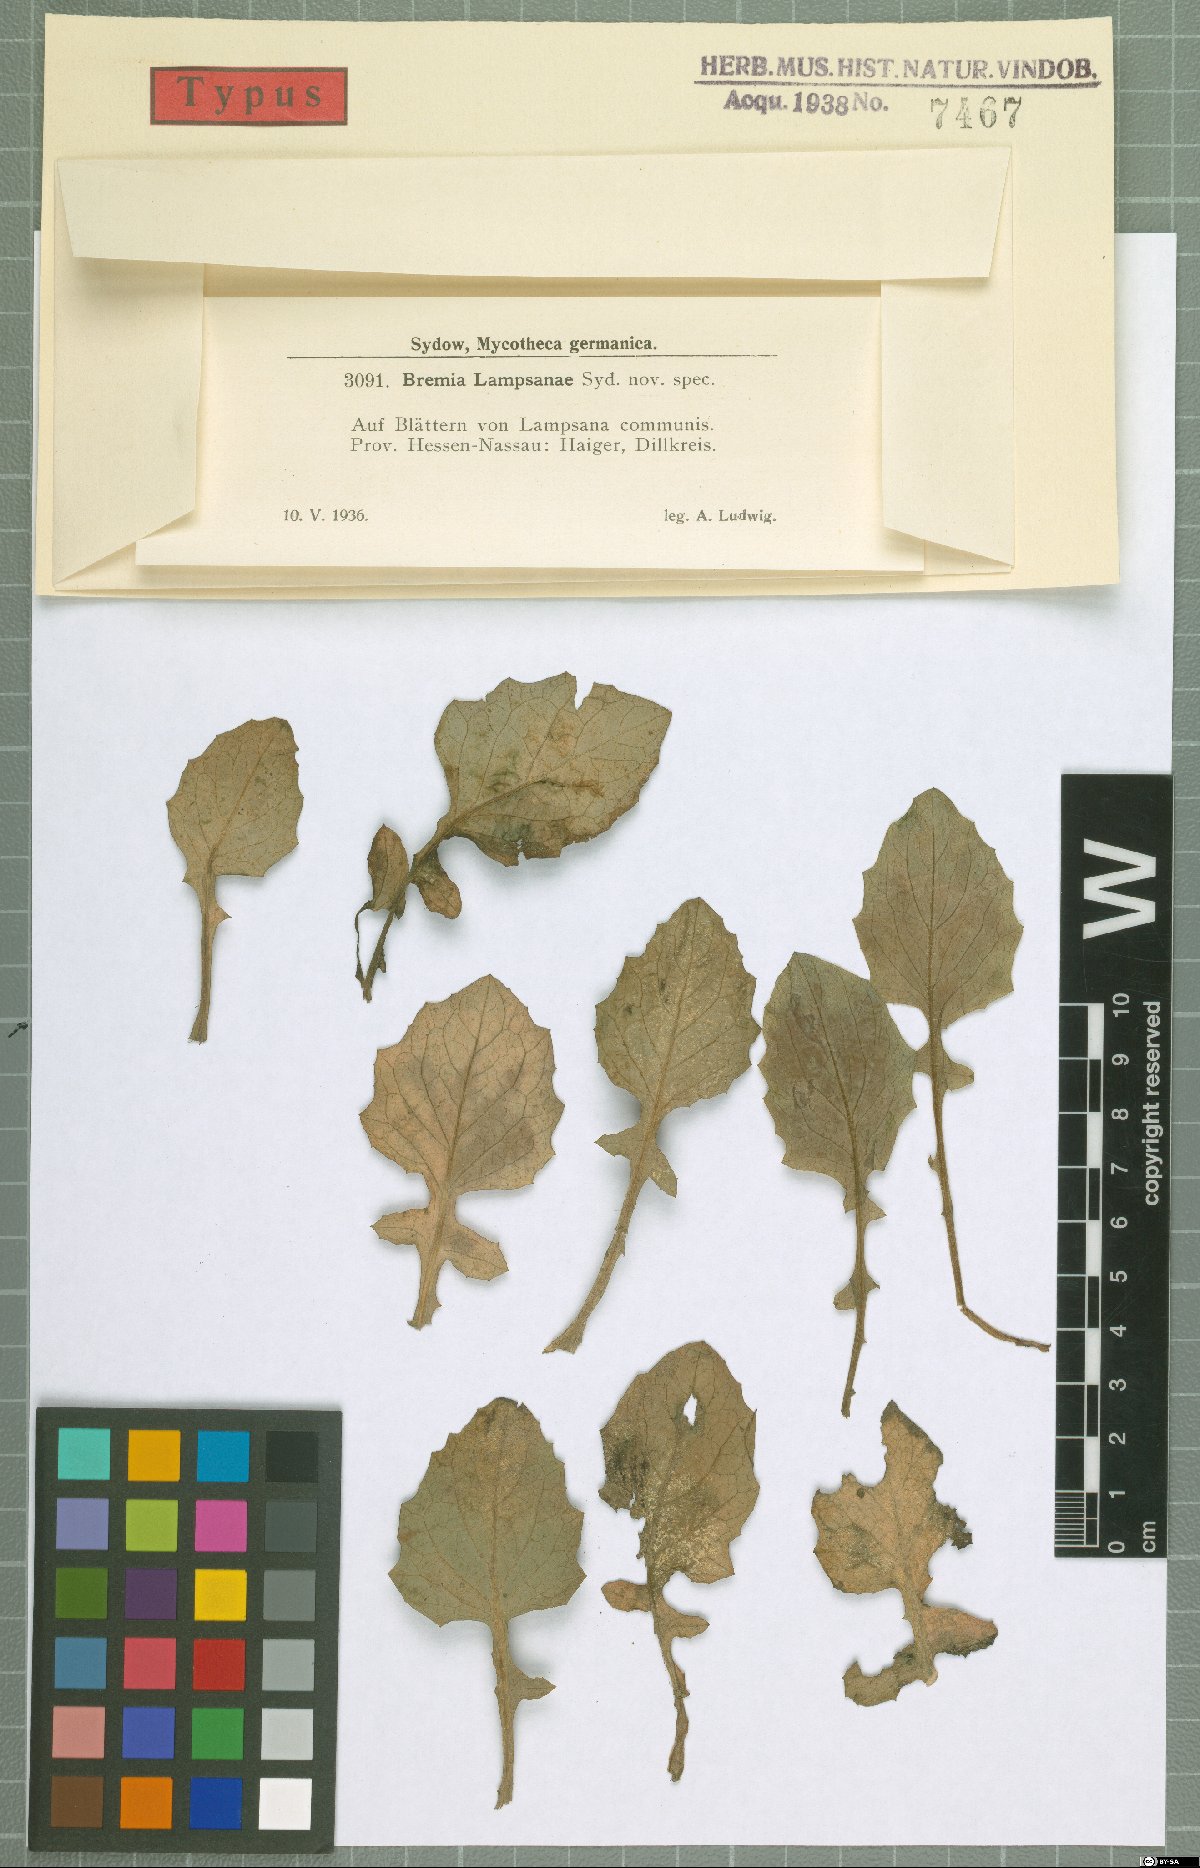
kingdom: Chromista
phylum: Oomycota
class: Peronosporea
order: Peronosporales
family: Peronosporaceae
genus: Bremia
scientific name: Bremia lapsanae
